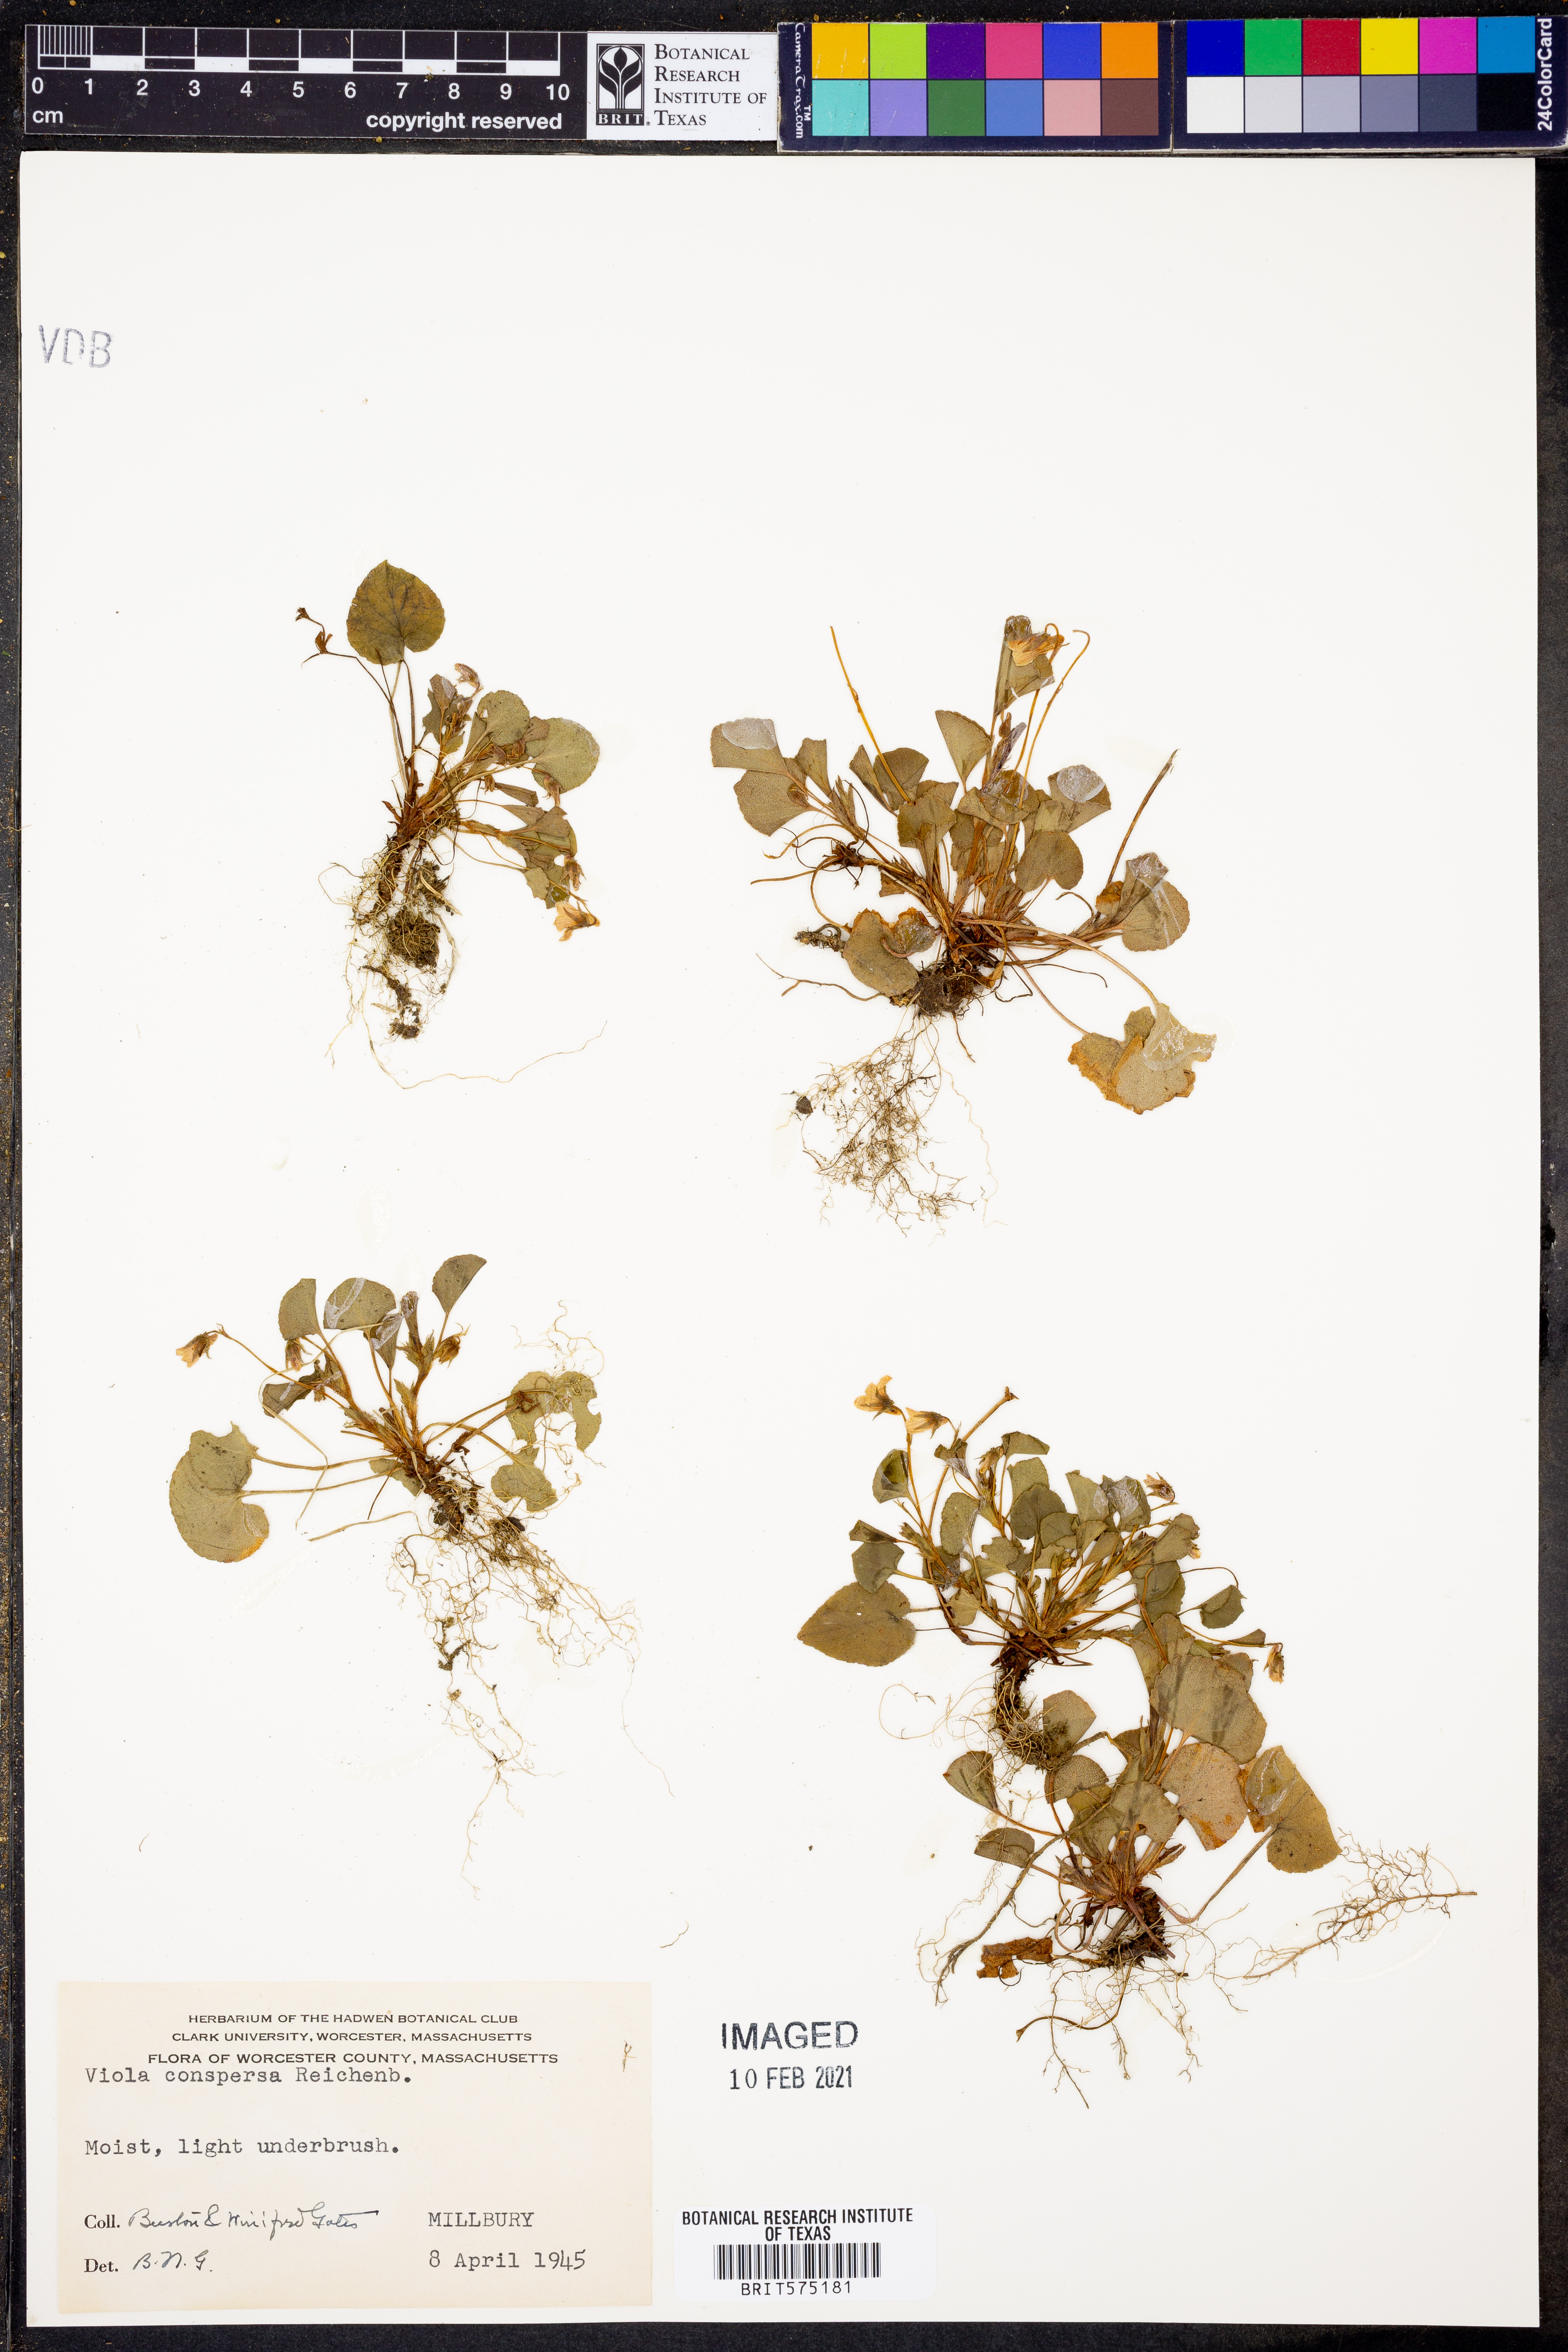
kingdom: Plantae
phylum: Tracheophyta
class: Magnoliopsida
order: Malpighiales
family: Violaceae
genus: Viola
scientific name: Viola labradorica
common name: Labrador violet
